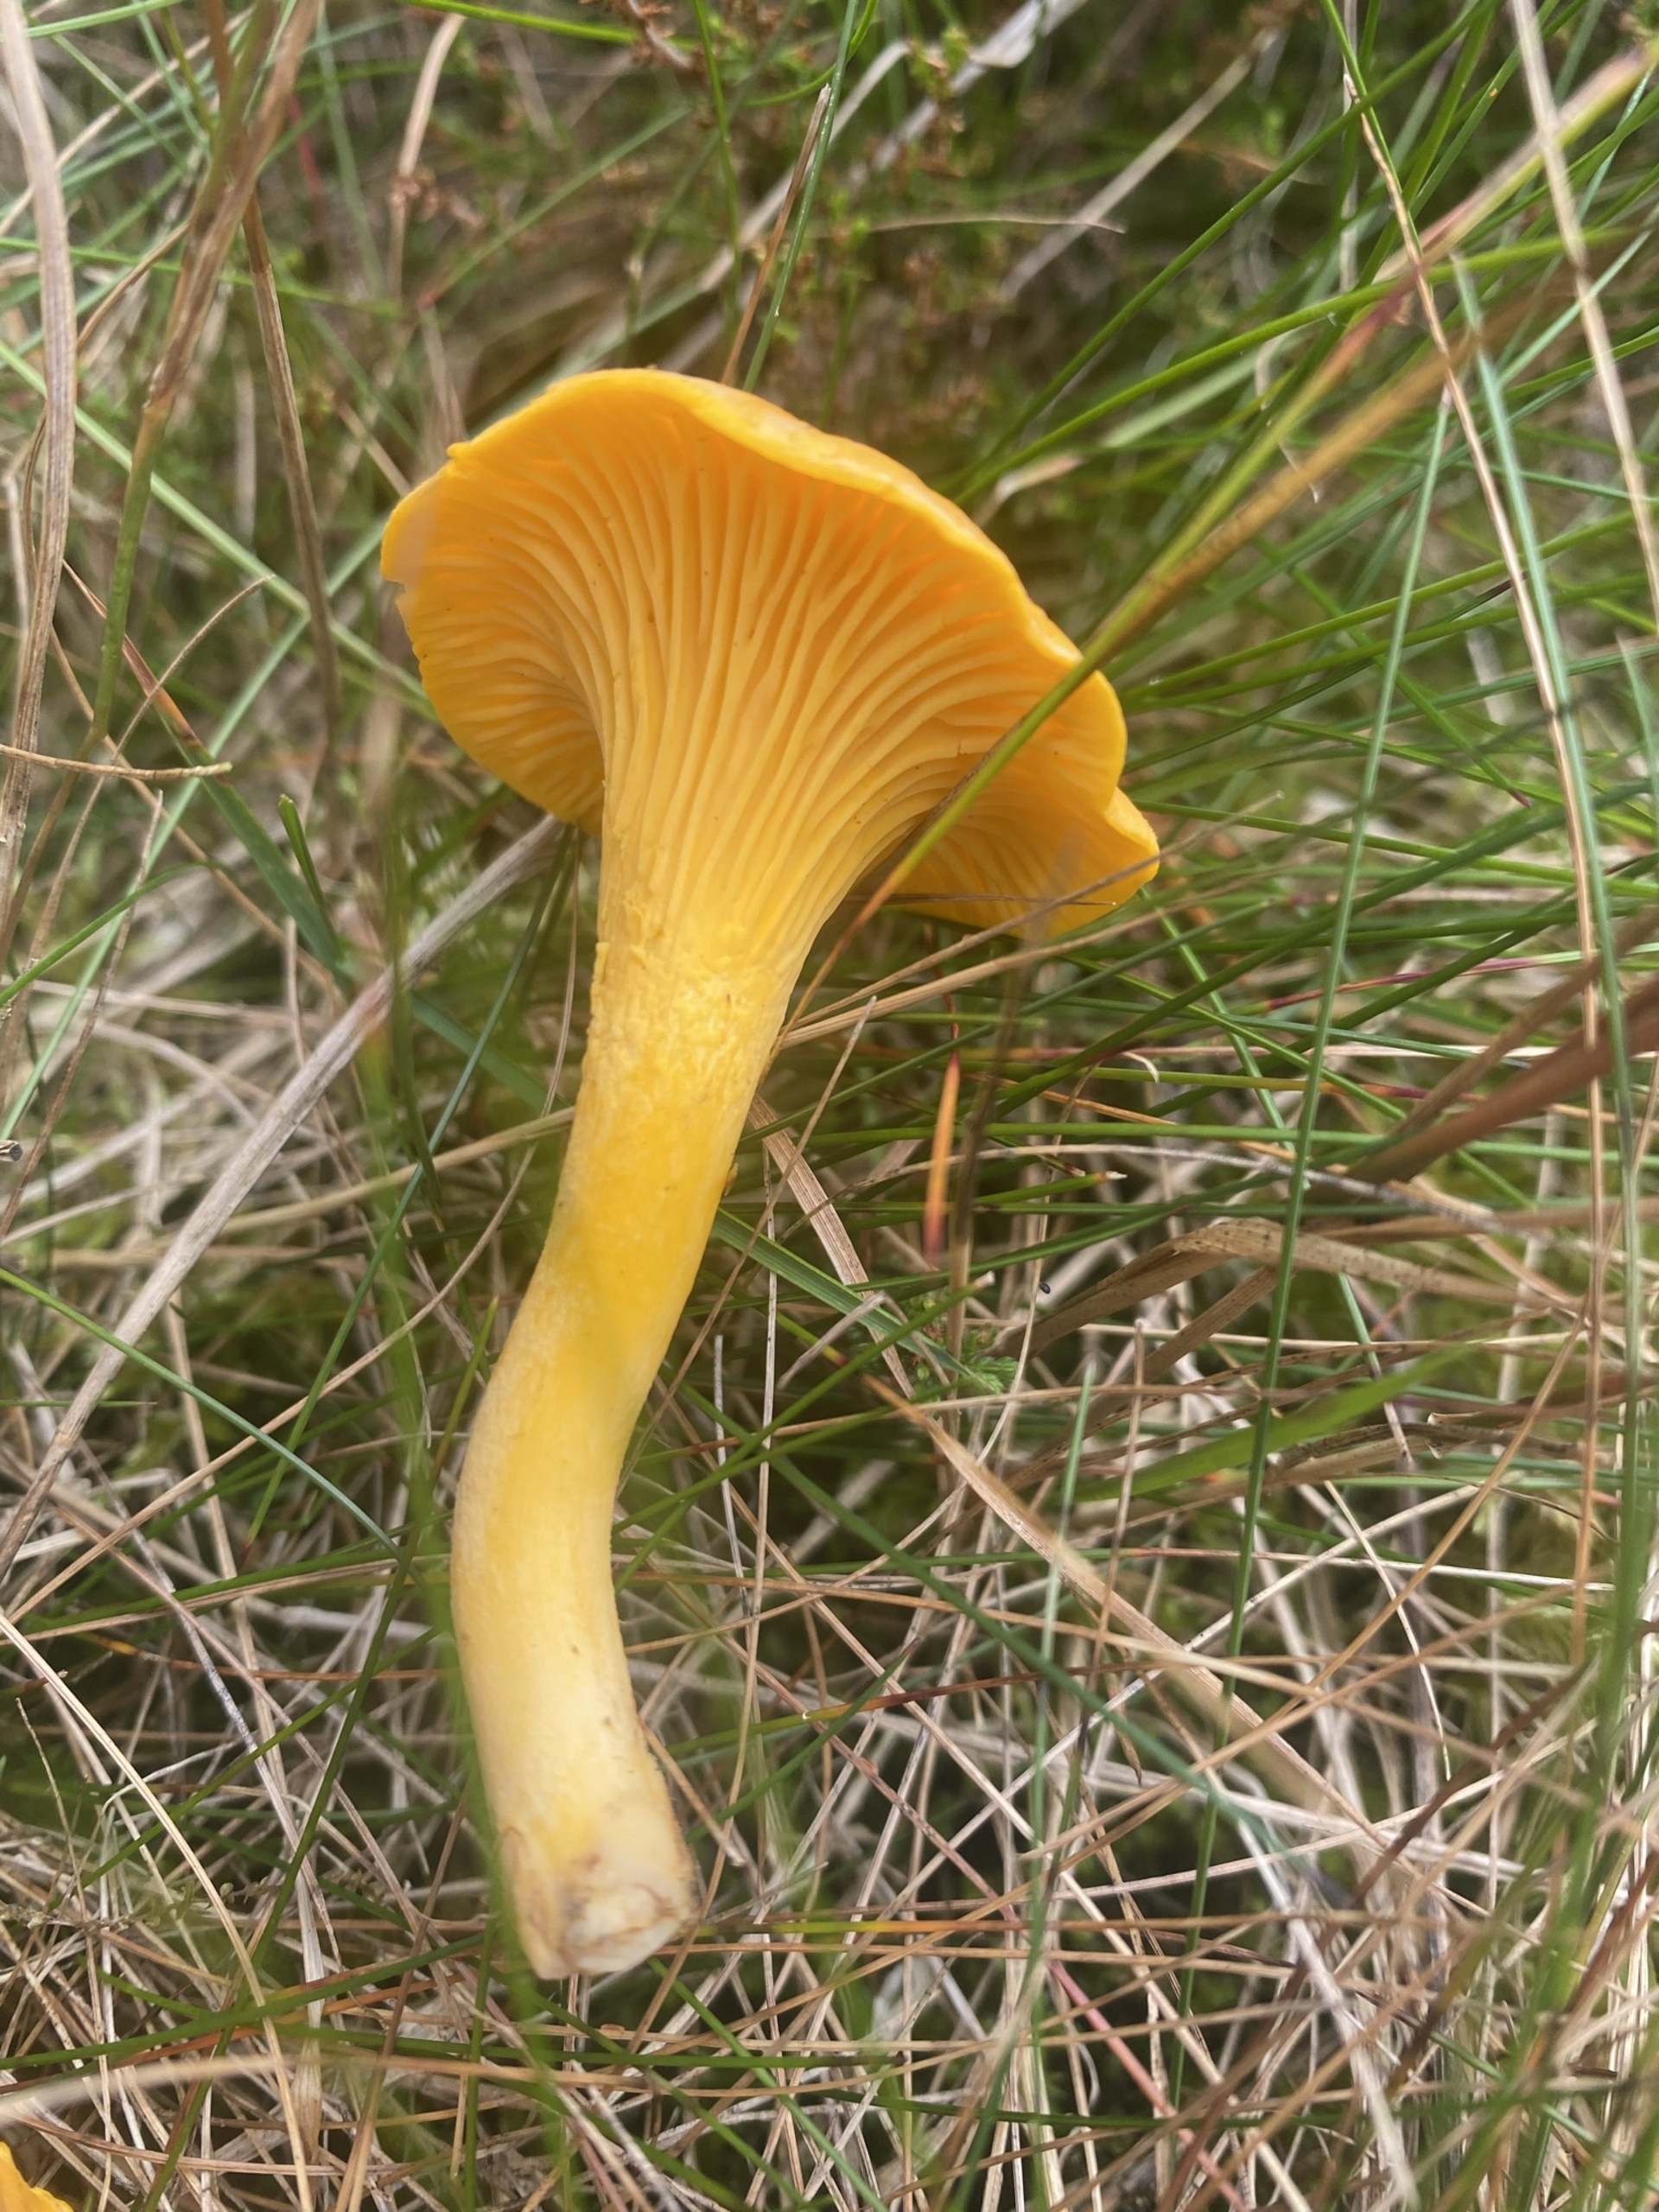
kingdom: Fungi
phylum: Basidiomycota
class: Agaricomycetes
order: Cantharellales
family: Hydnaceae
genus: Cantharellus
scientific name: Cantharellus cibarius
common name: Almindelig kantarel
